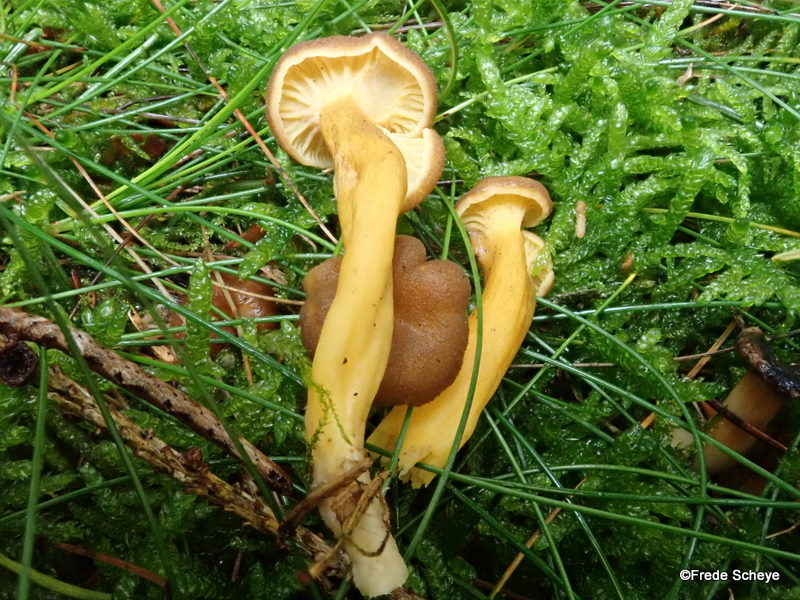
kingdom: Fungi
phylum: Basidiomycota
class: Agaricomycetes
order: Cantharellales
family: Hydnaceae
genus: Craterellus
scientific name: Craterellus tubaeformis
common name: tragt-kantarel
